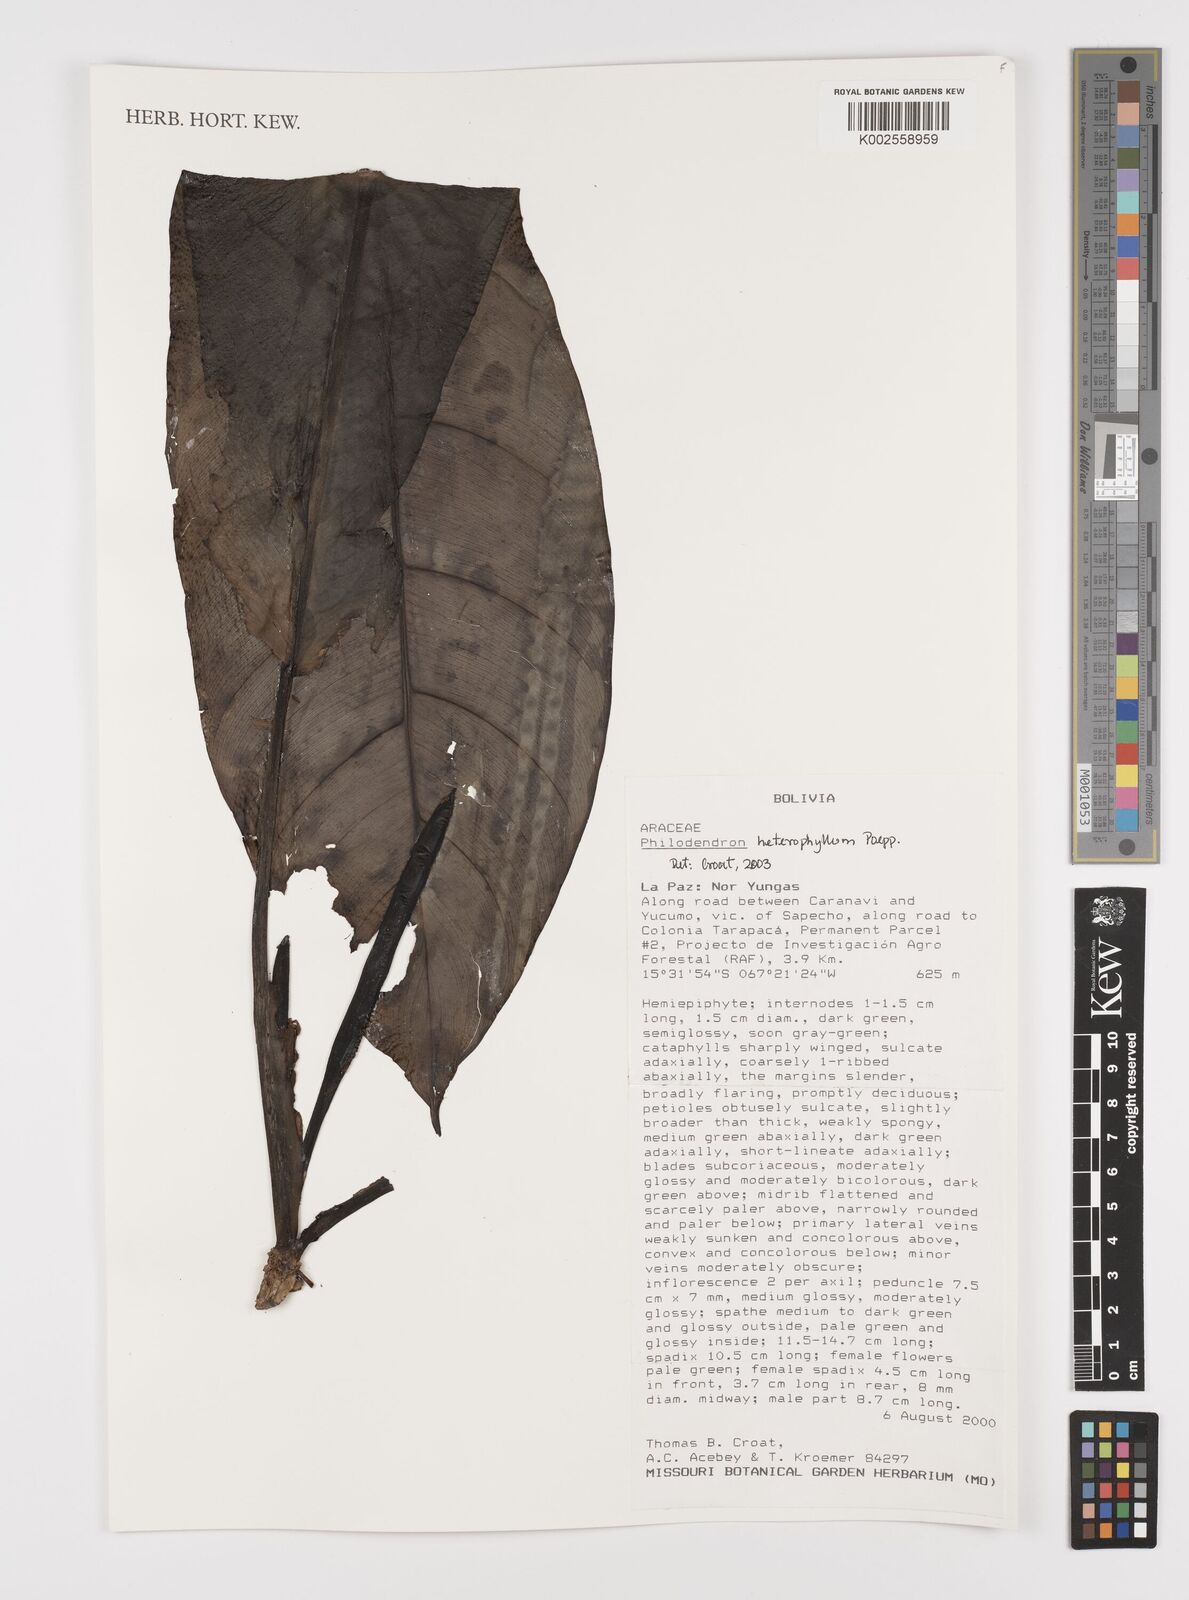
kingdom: Plantae
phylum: Tracheophyta
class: Liliopsida
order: Alismatales
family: Araceae
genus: Philodendron
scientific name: Philodendron heterophyllum
